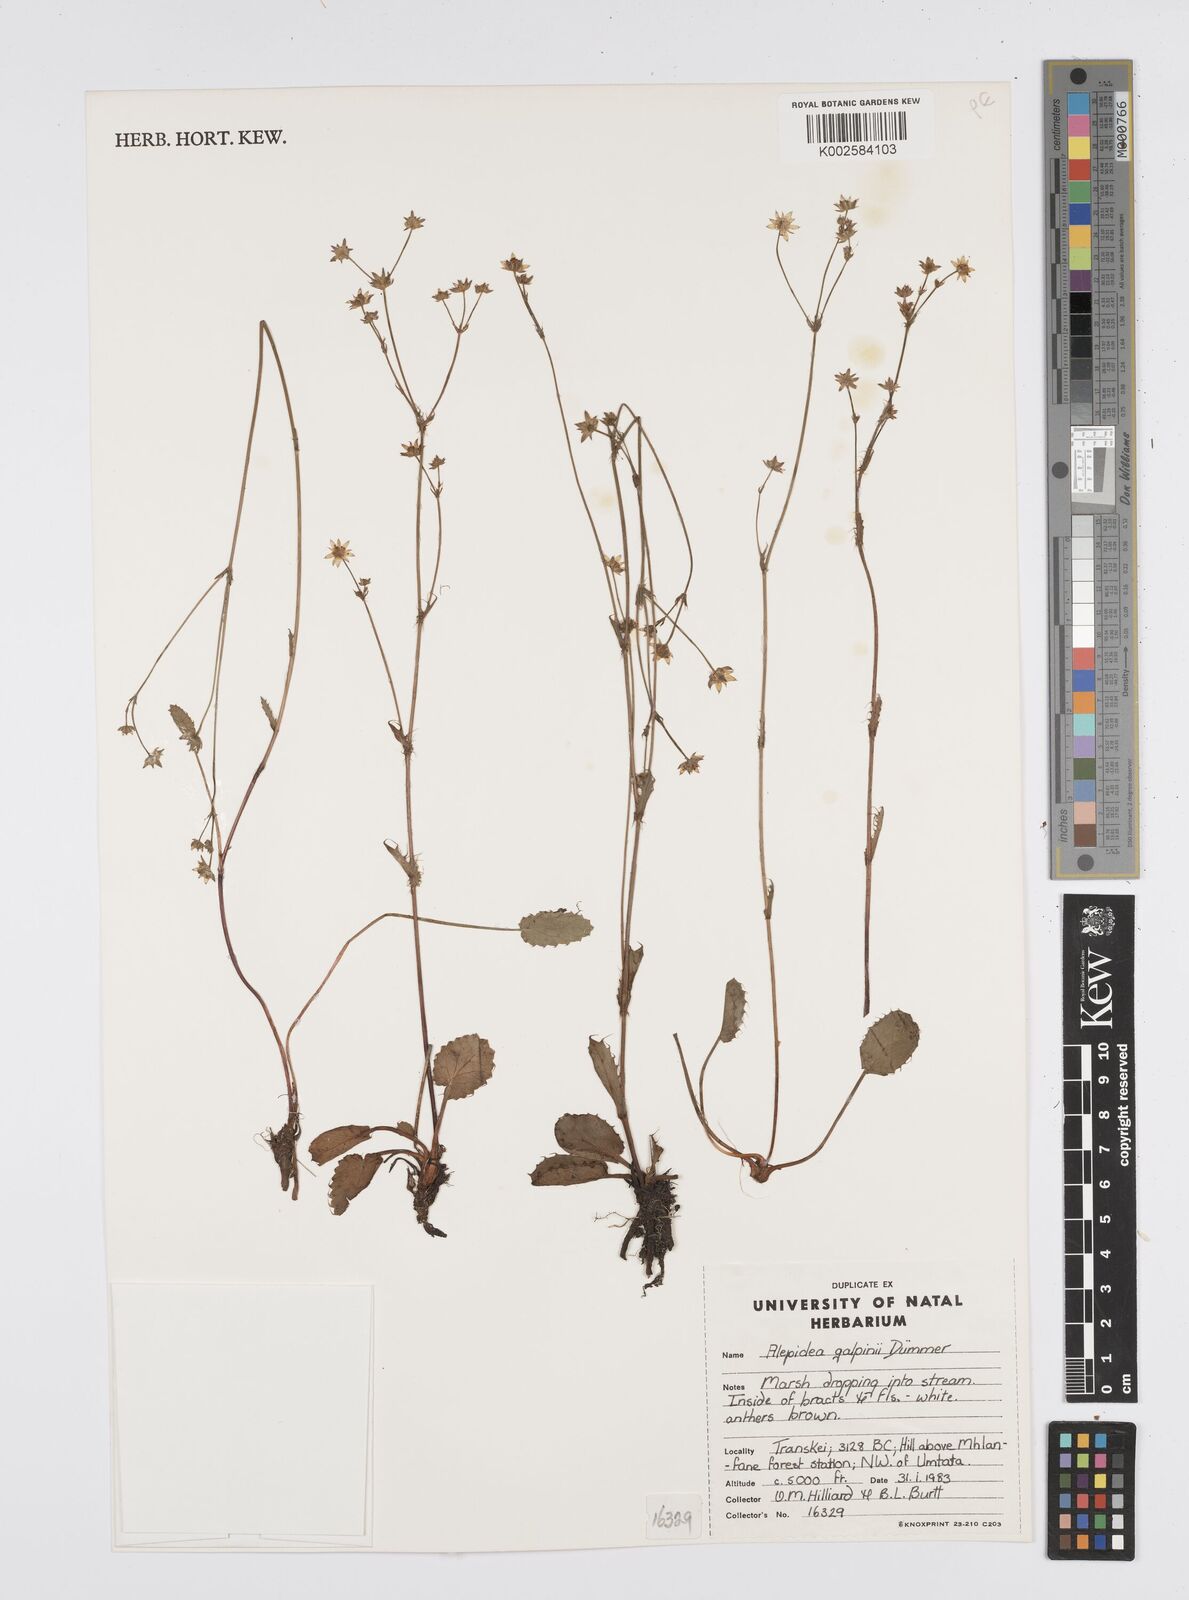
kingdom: Plantae
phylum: Tracheophyta
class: Magnoliopsida
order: Apiales
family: Apiaceae
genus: Alepidea
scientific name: Alepidea galpinii
